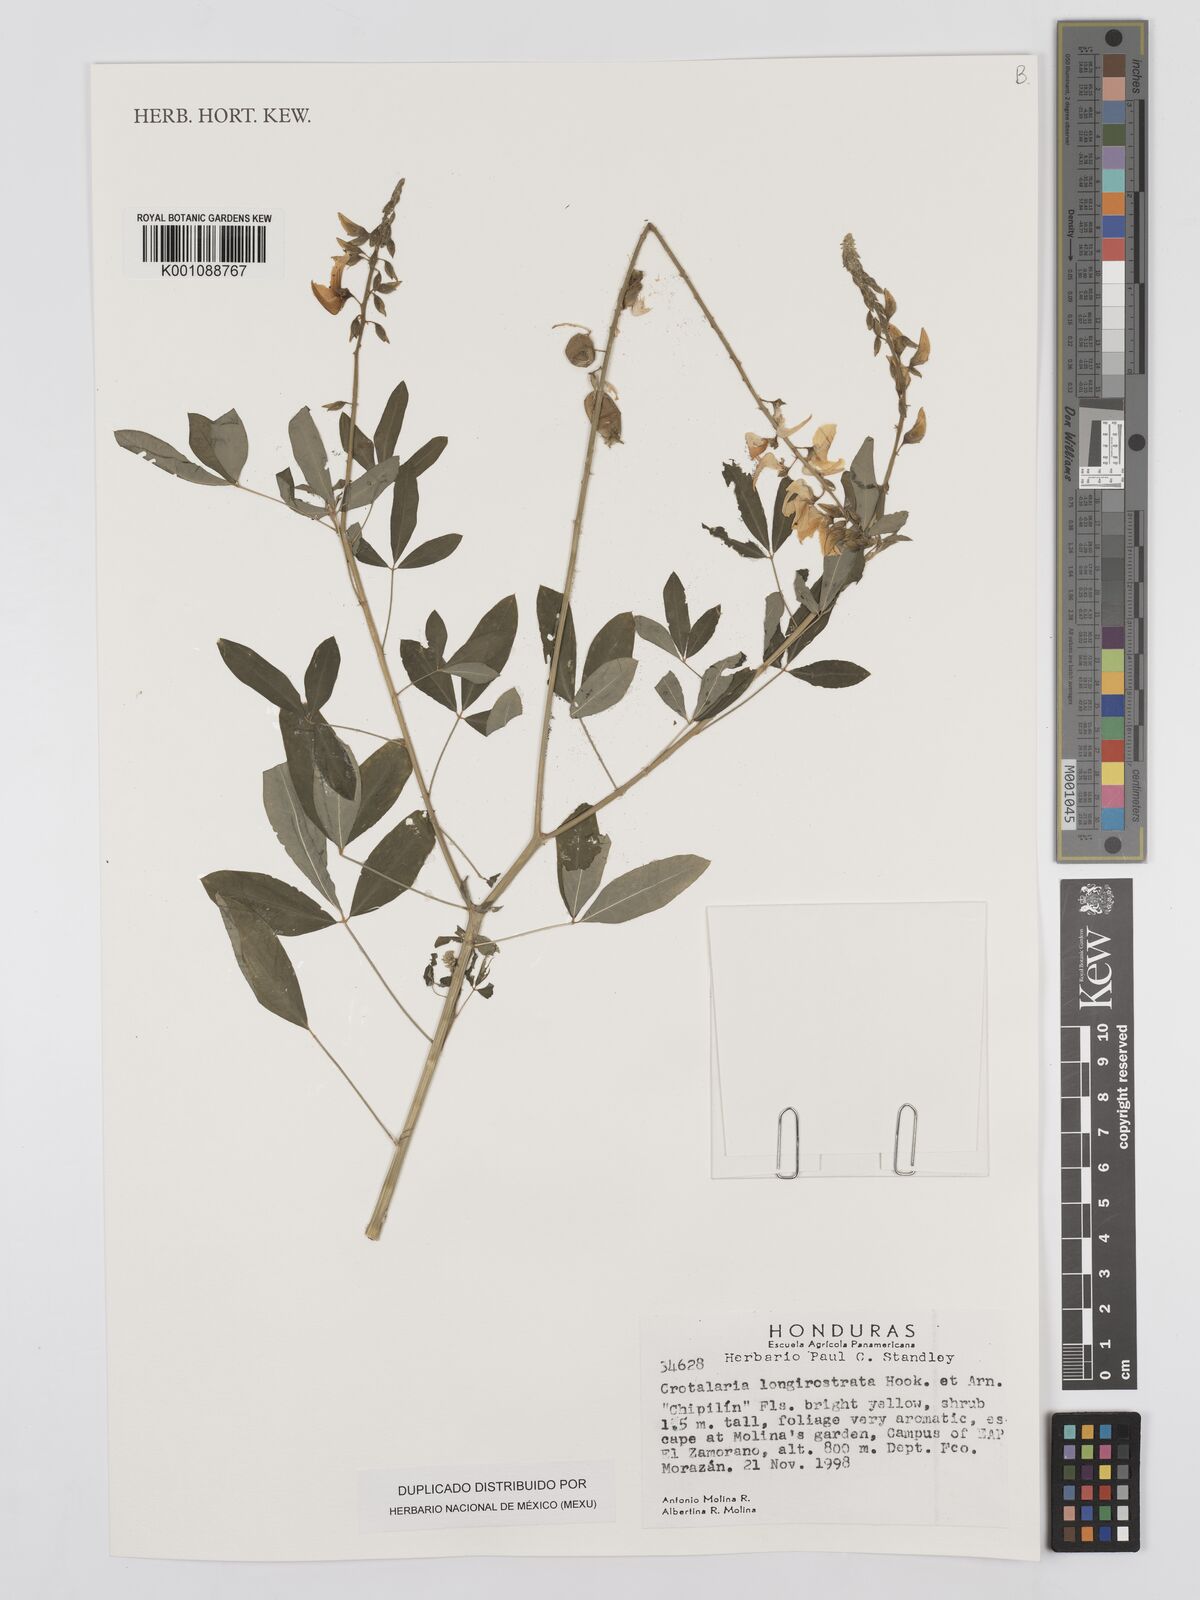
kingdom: Plantae
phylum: Tracheophyta
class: Magnoliopsida
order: Fabales
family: Fabaceae
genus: Crotalaria
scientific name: Crotalaria longirostrata
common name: Longbeak rattlebox
